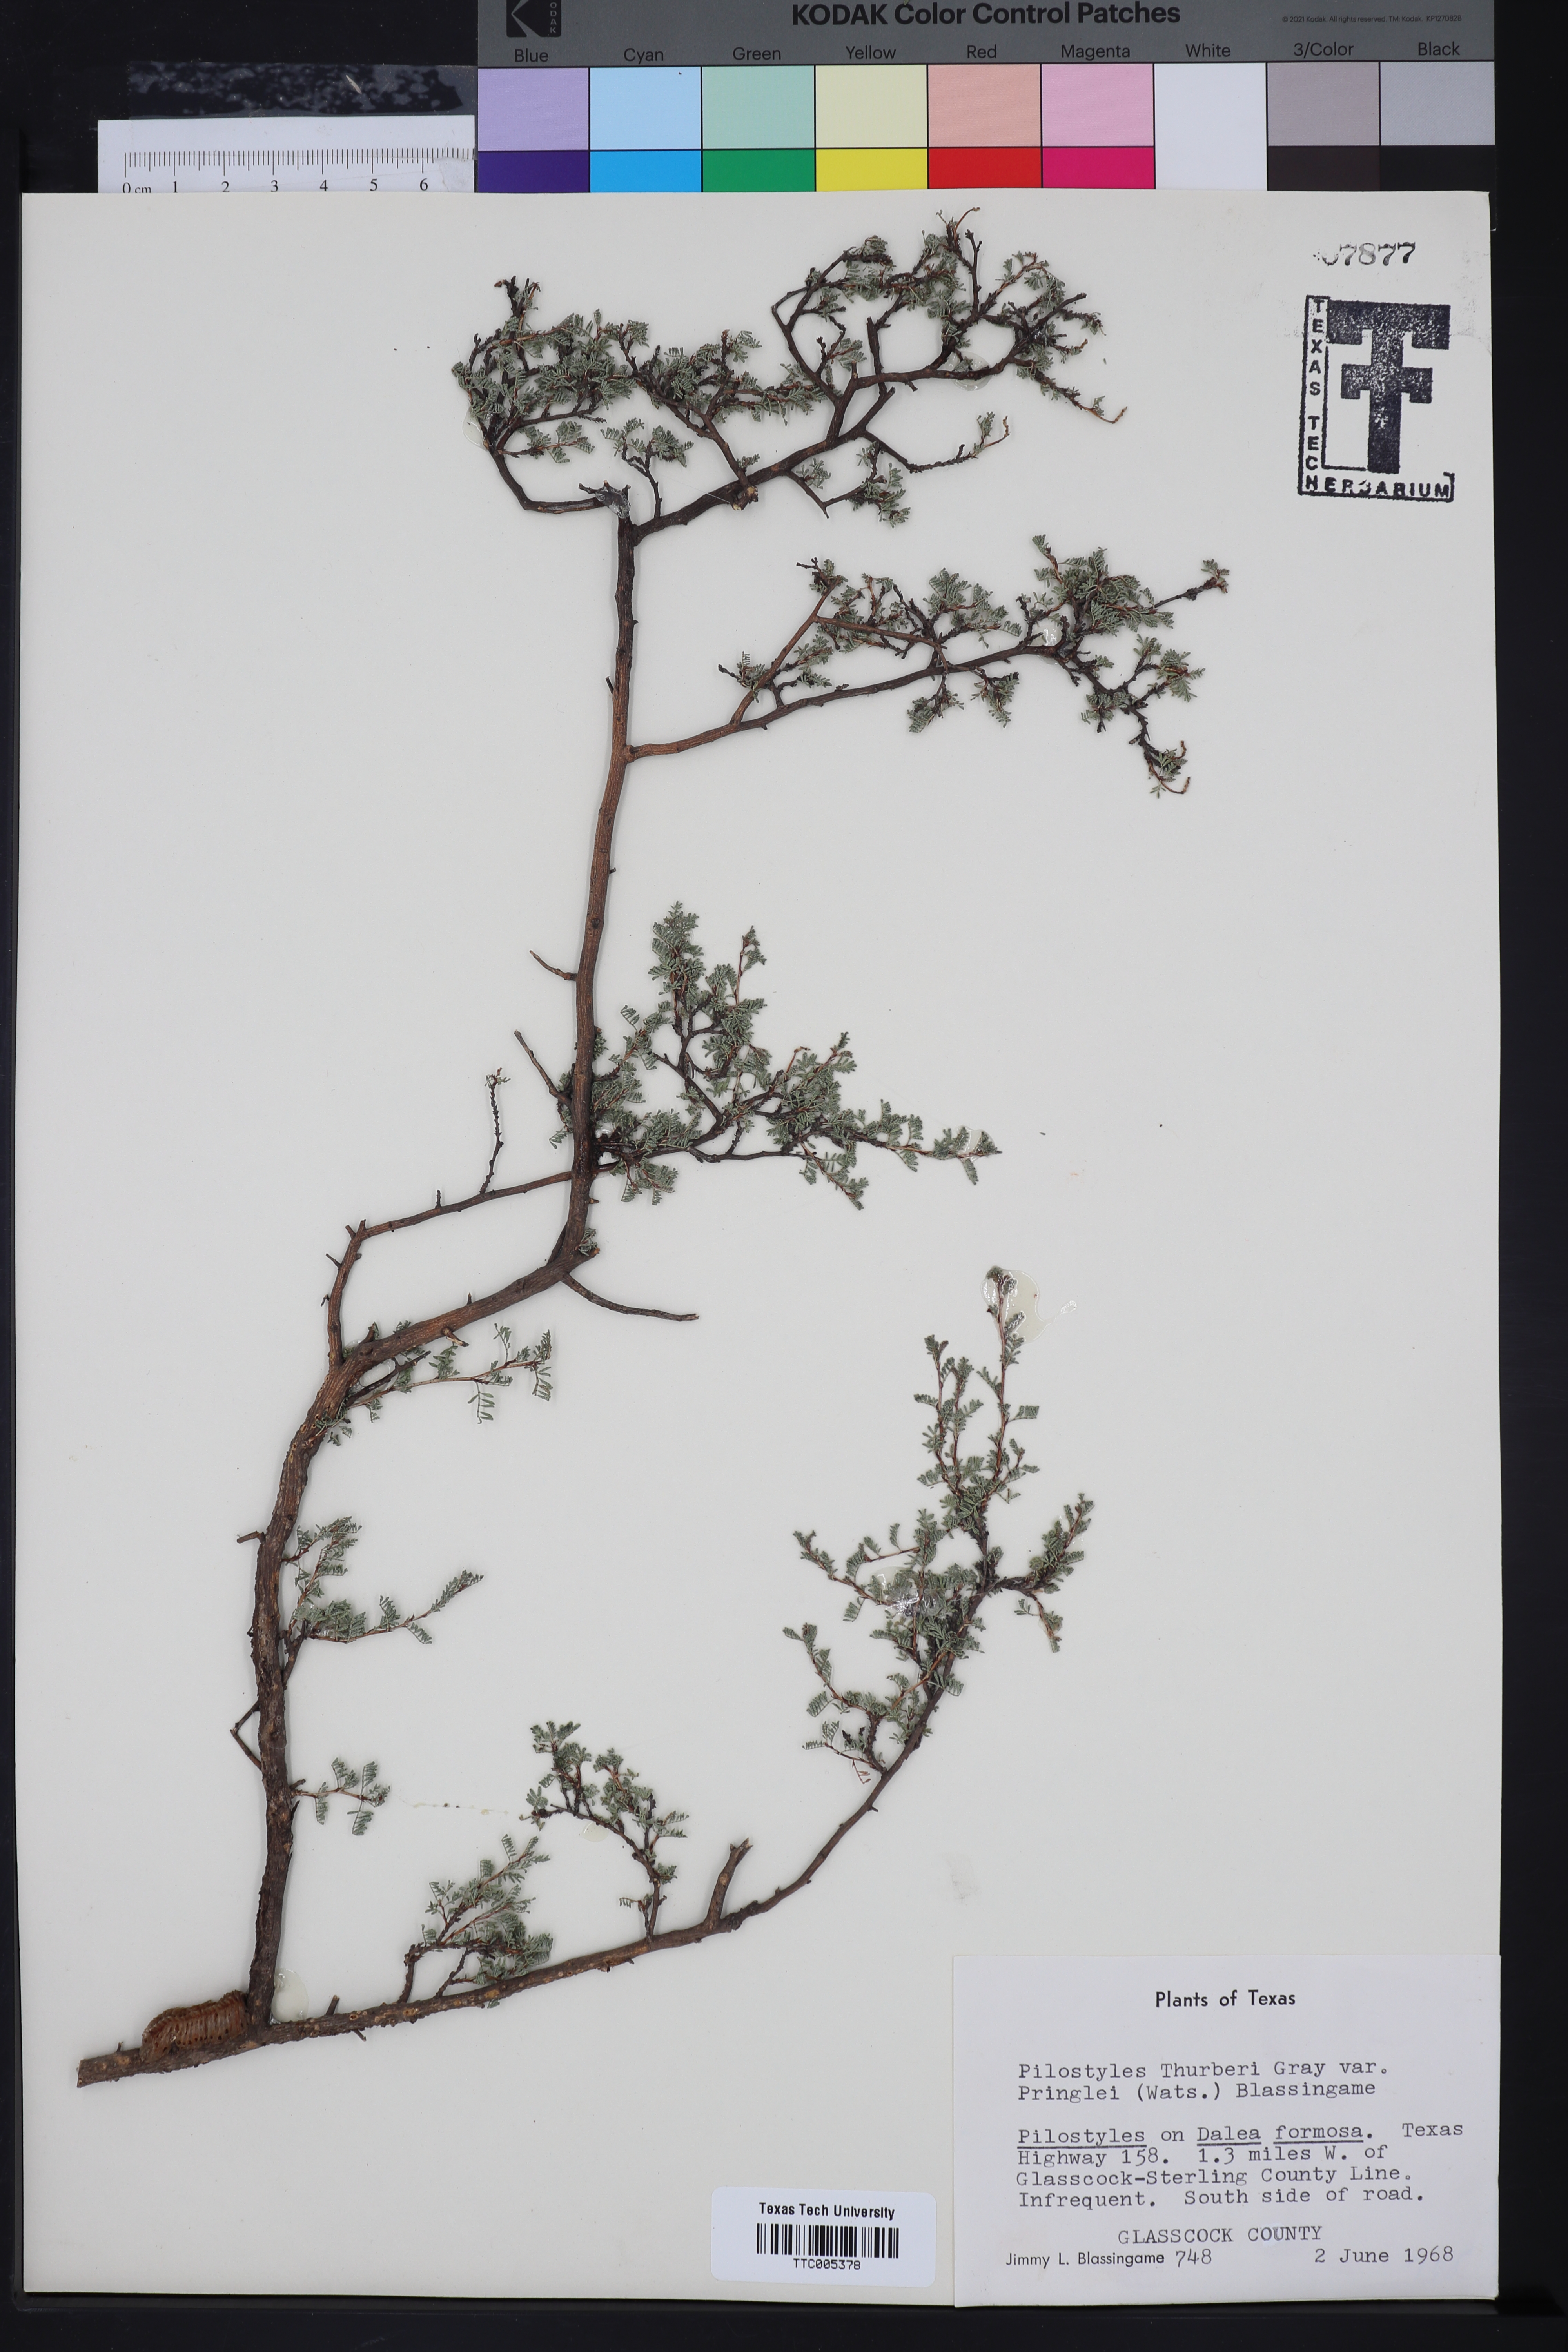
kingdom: Plantae
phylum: Tracheophyta
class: Magnoliopsida
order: Cucurbitales
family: Apodanthaceae
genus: Pilostyles
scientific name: Pilostyles thurberi
